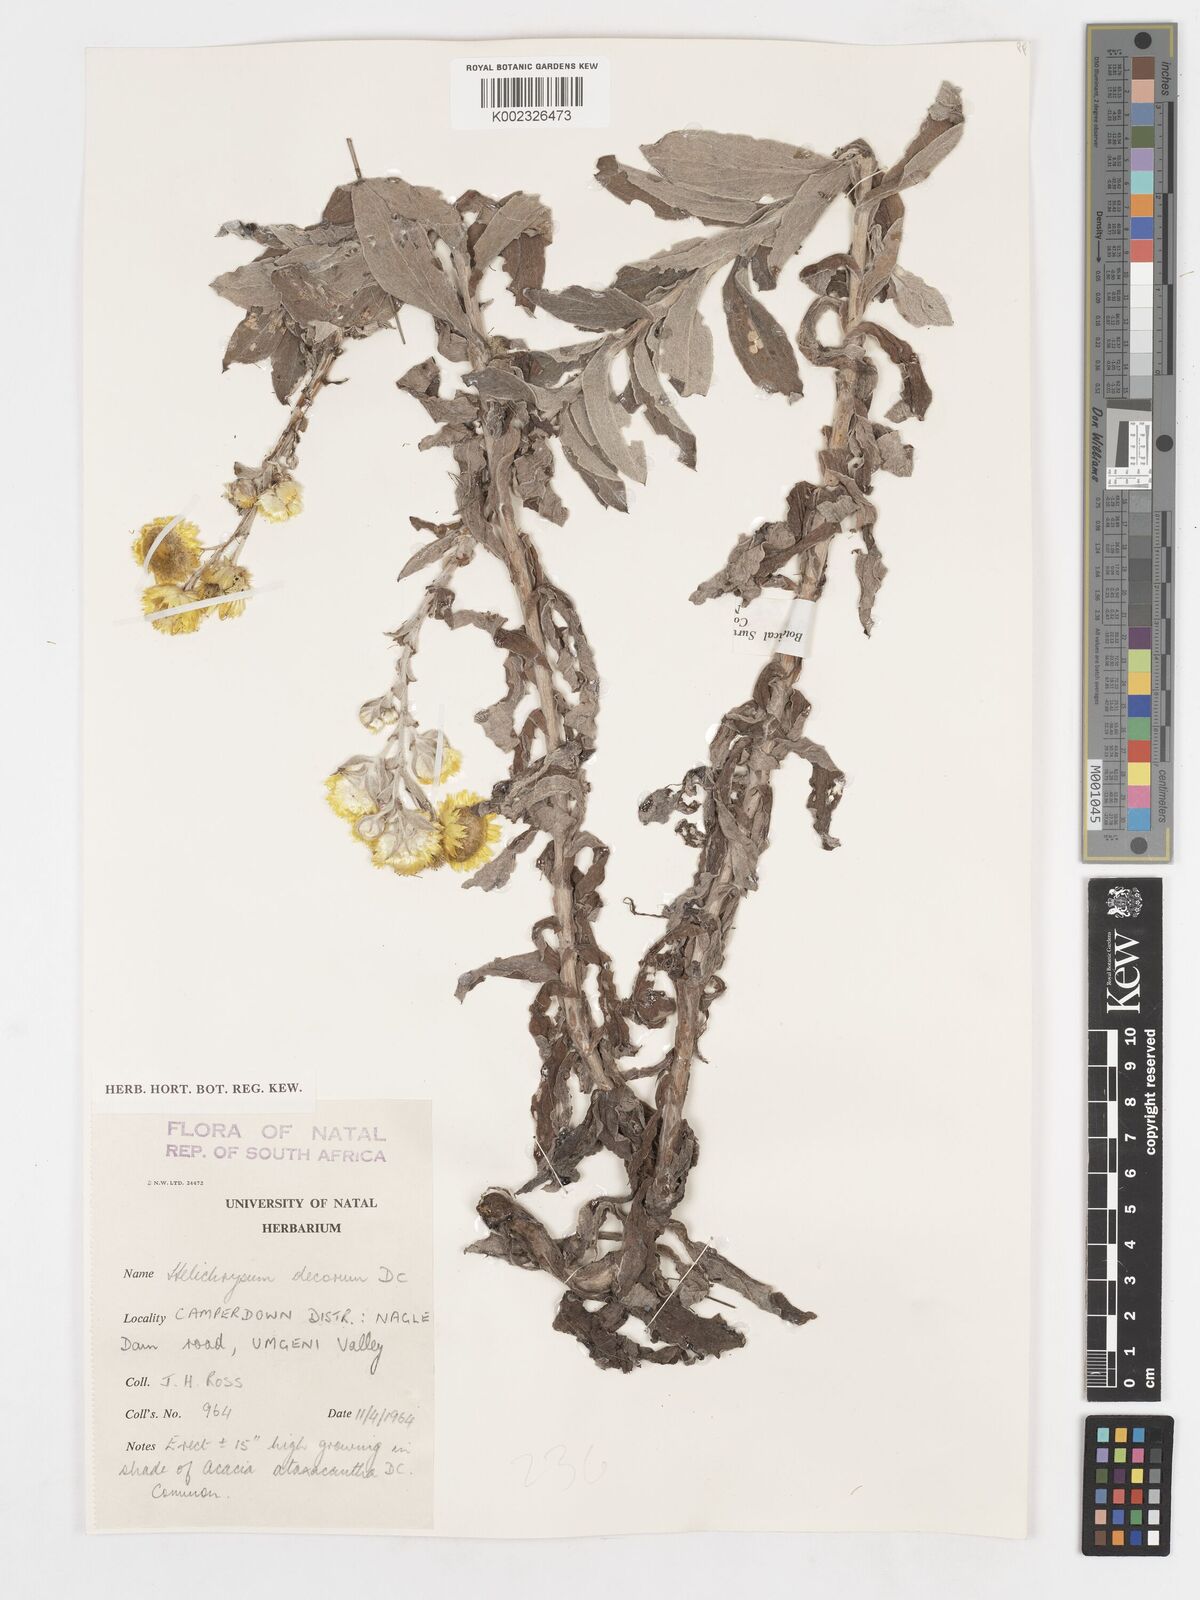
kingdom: Plantae
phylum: Tracheophyta
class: Magnoliopsida
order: Asterales
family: Asteraceae
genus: Helichrysum
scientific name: Helichrysum decorum
